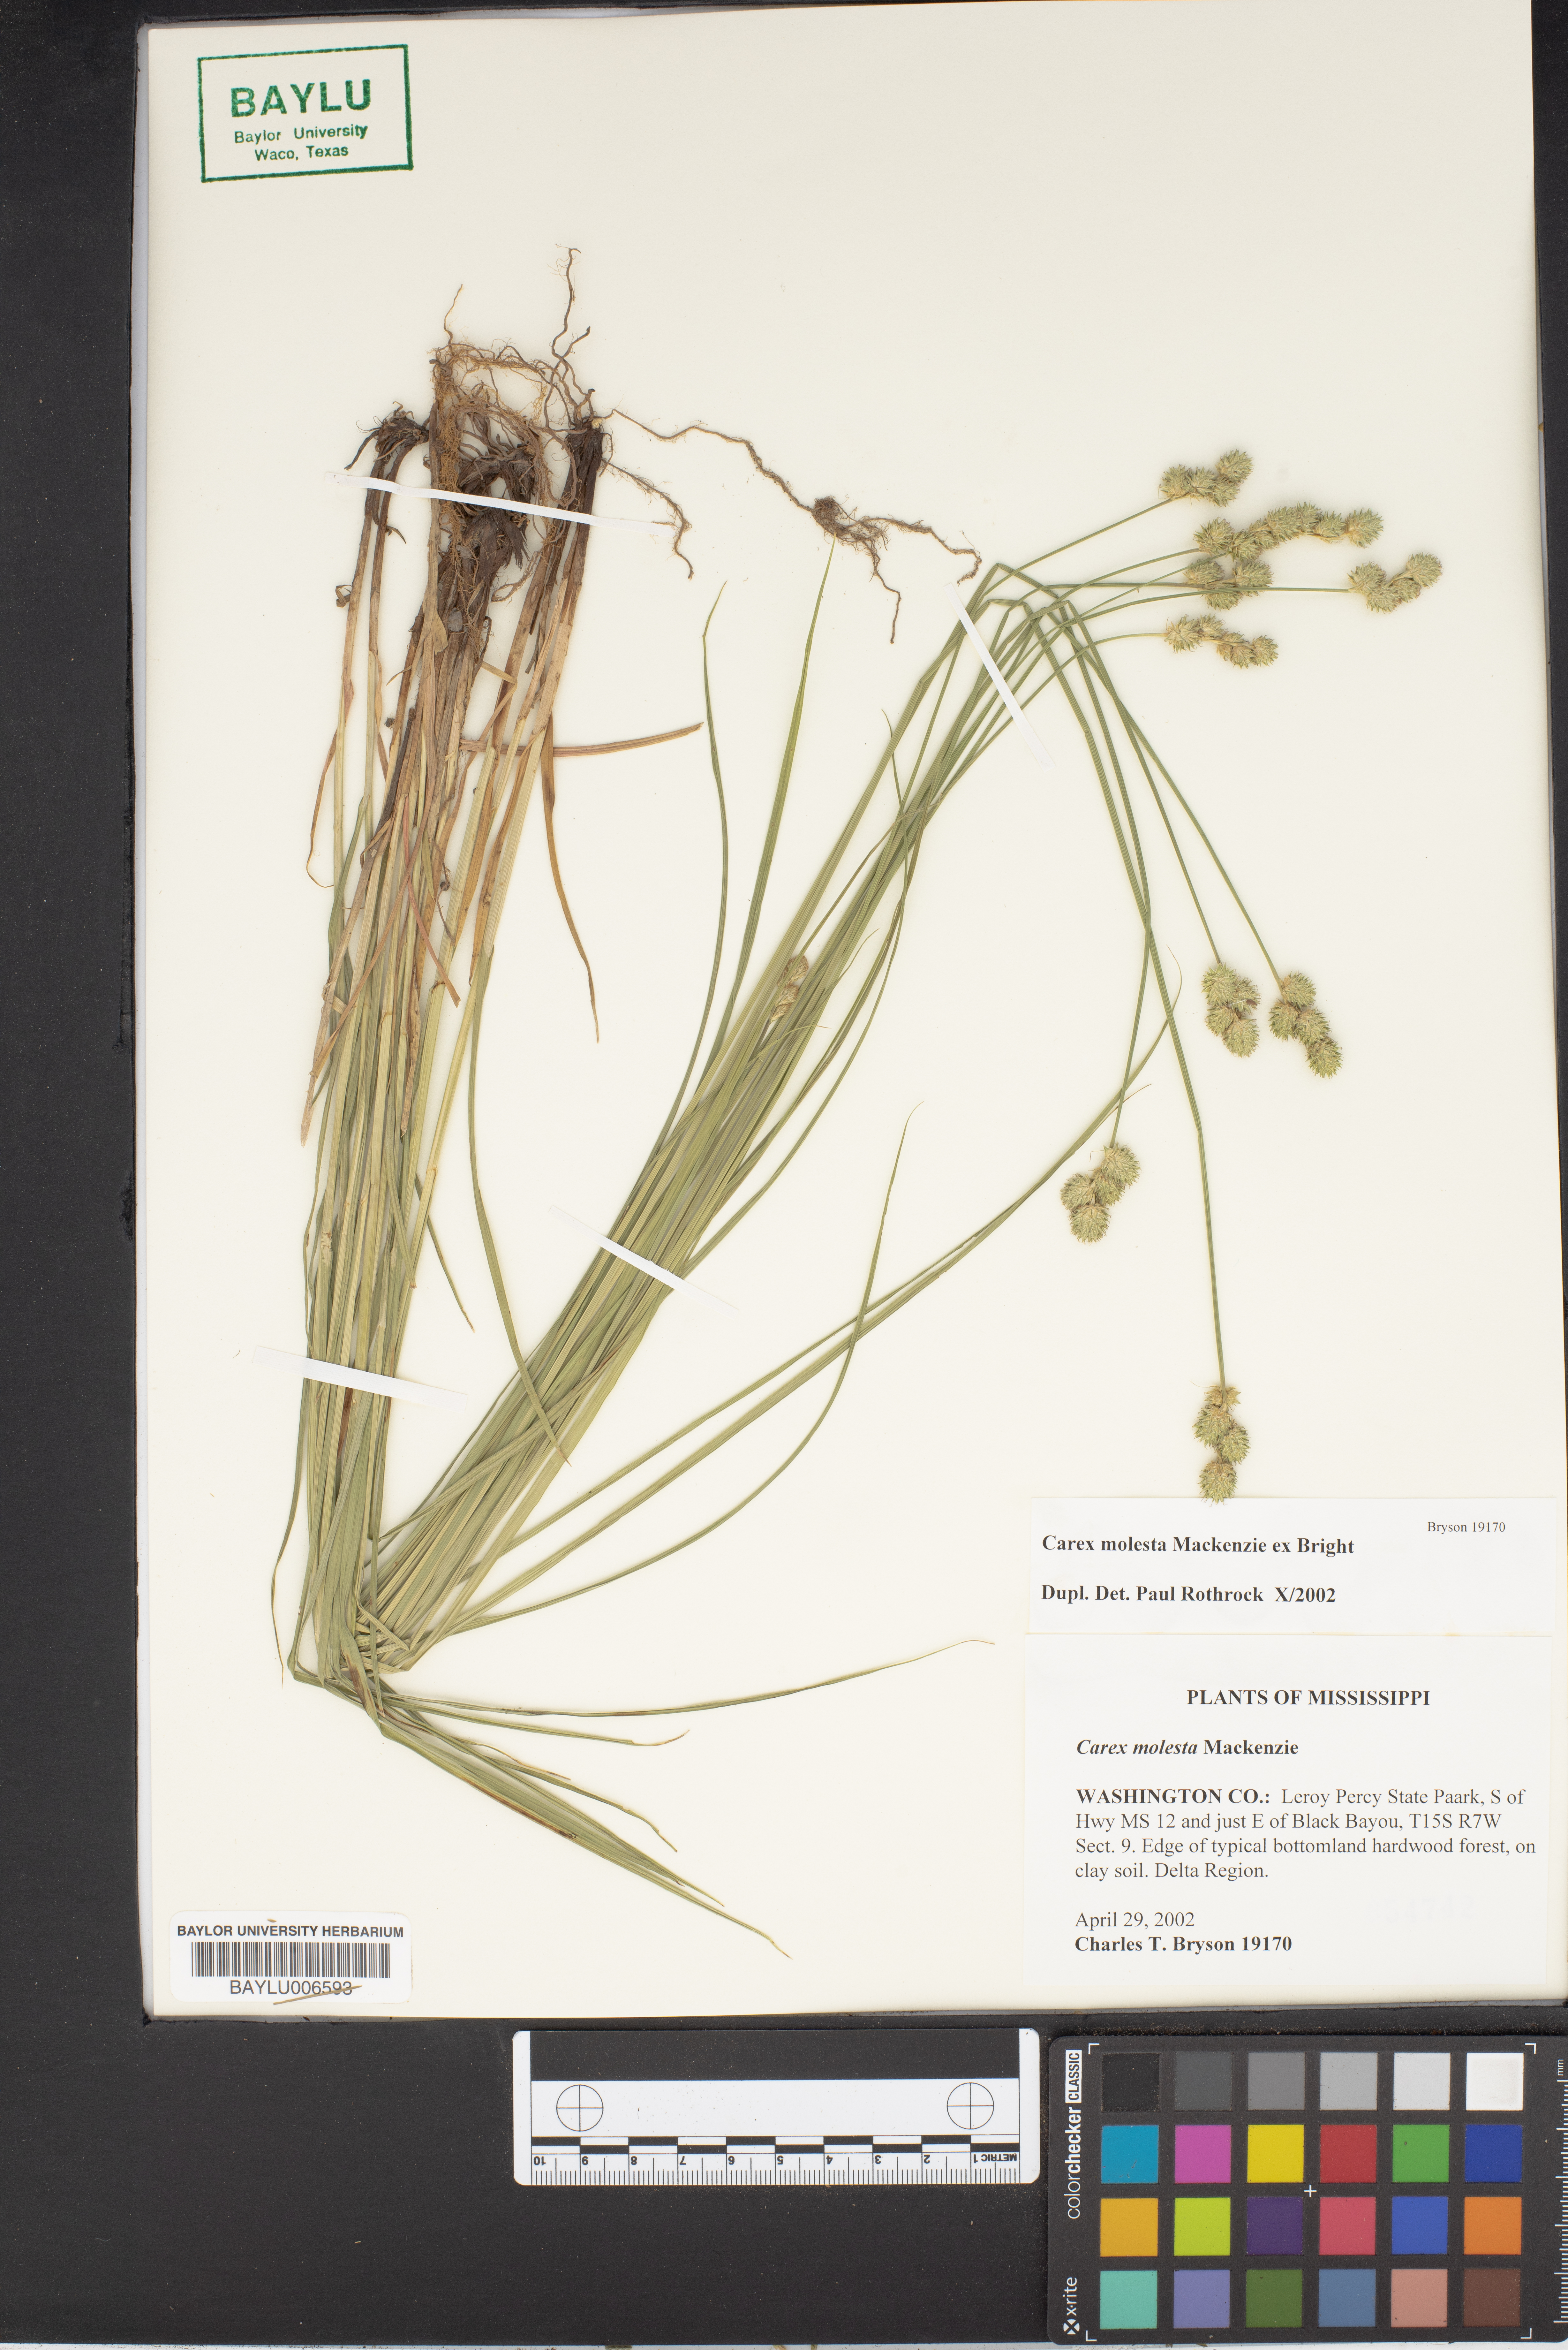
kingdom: Plantae
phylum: Tracheophyta
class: Liliopsida
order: Poales
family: Cyperaceae
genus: Carex
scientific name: Carex molesta
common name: Troublesome sedge
